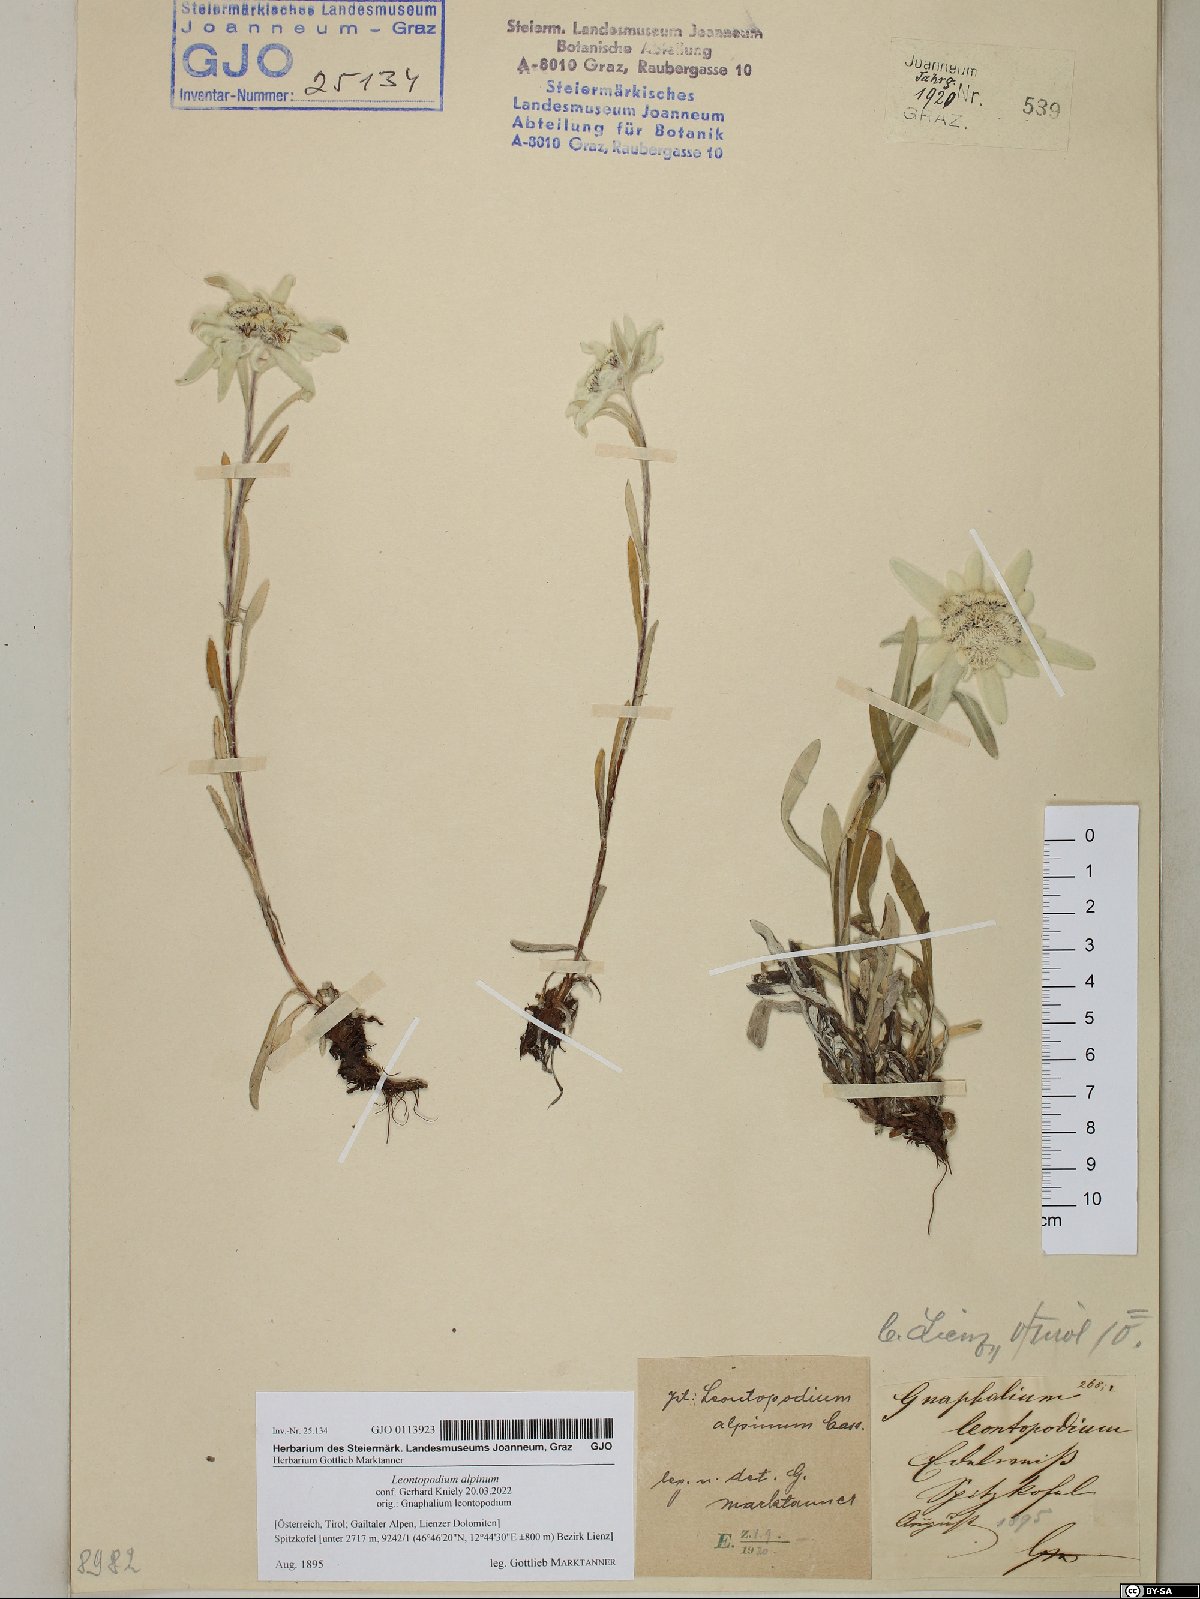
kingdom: Plantae
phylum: Tracheophyta
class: Magnoliopsida
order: Asterales
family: Asteraceae
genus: Leontopodium
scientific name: Leontopodium nivale
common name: Edelweiss
